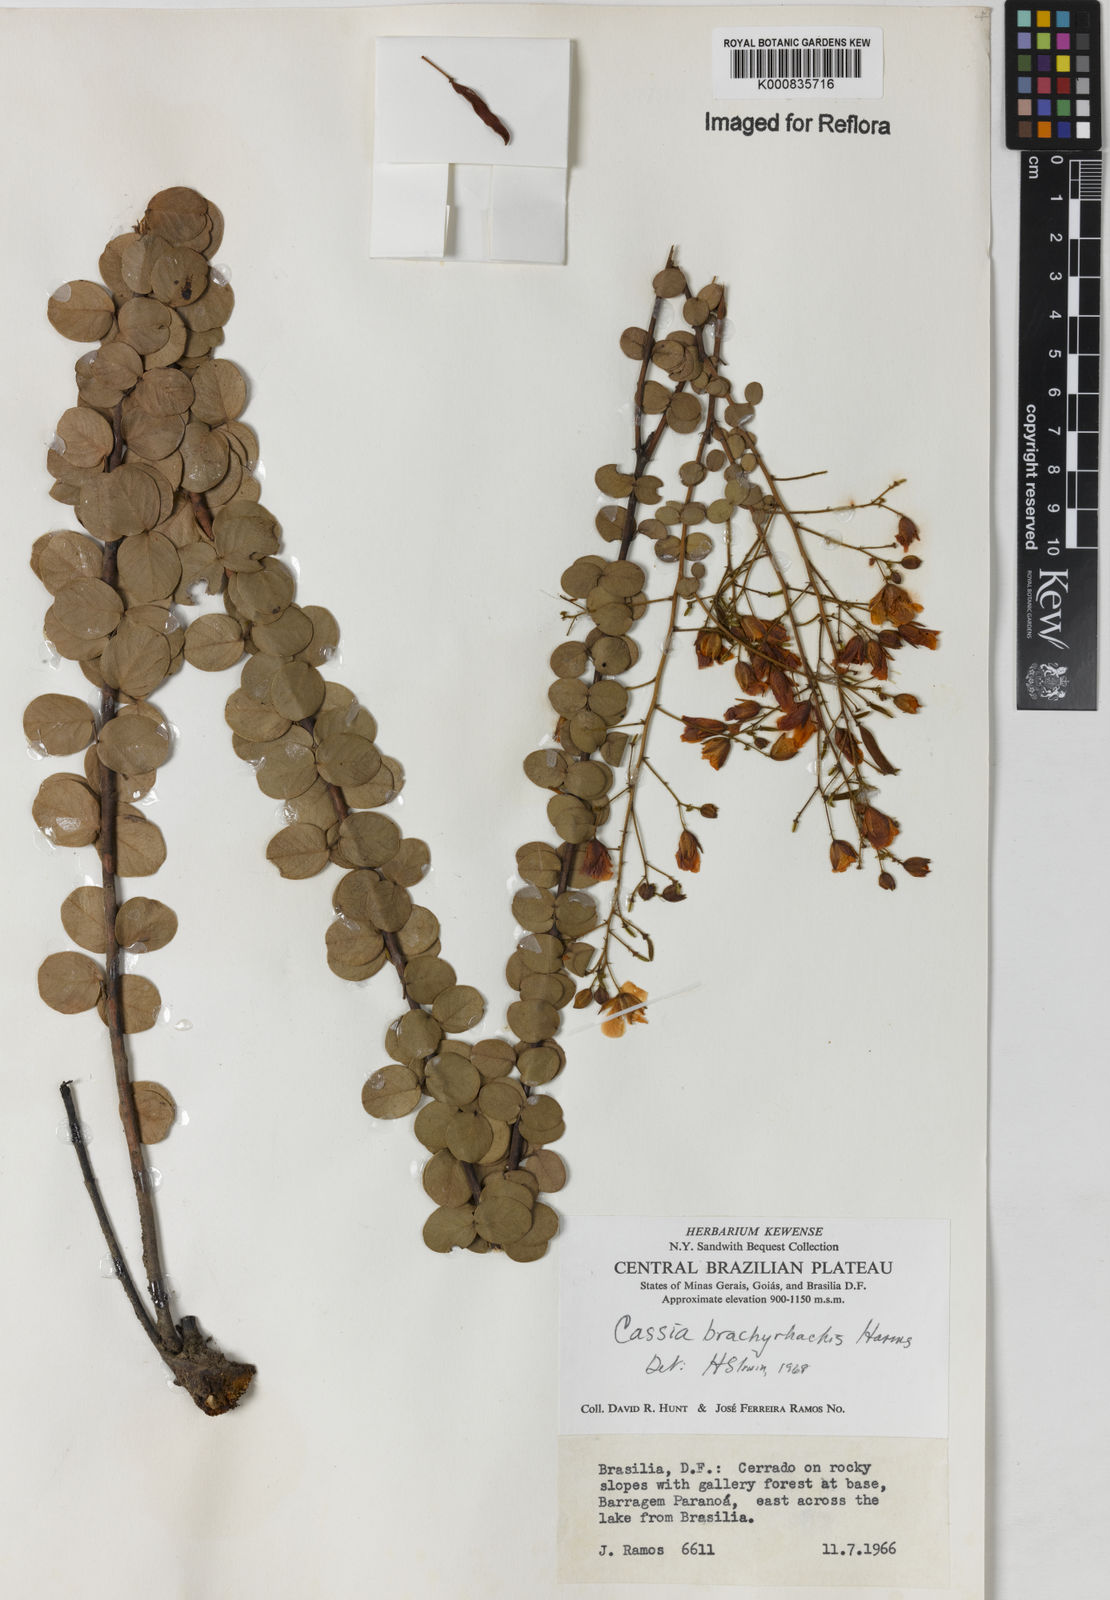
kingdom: Plantae
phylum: Tracheophyta
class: Magnoliopsida
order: Fabales
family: Fabaceae
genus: Chamaecrista
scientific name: Chamaecrista brachyrachis
